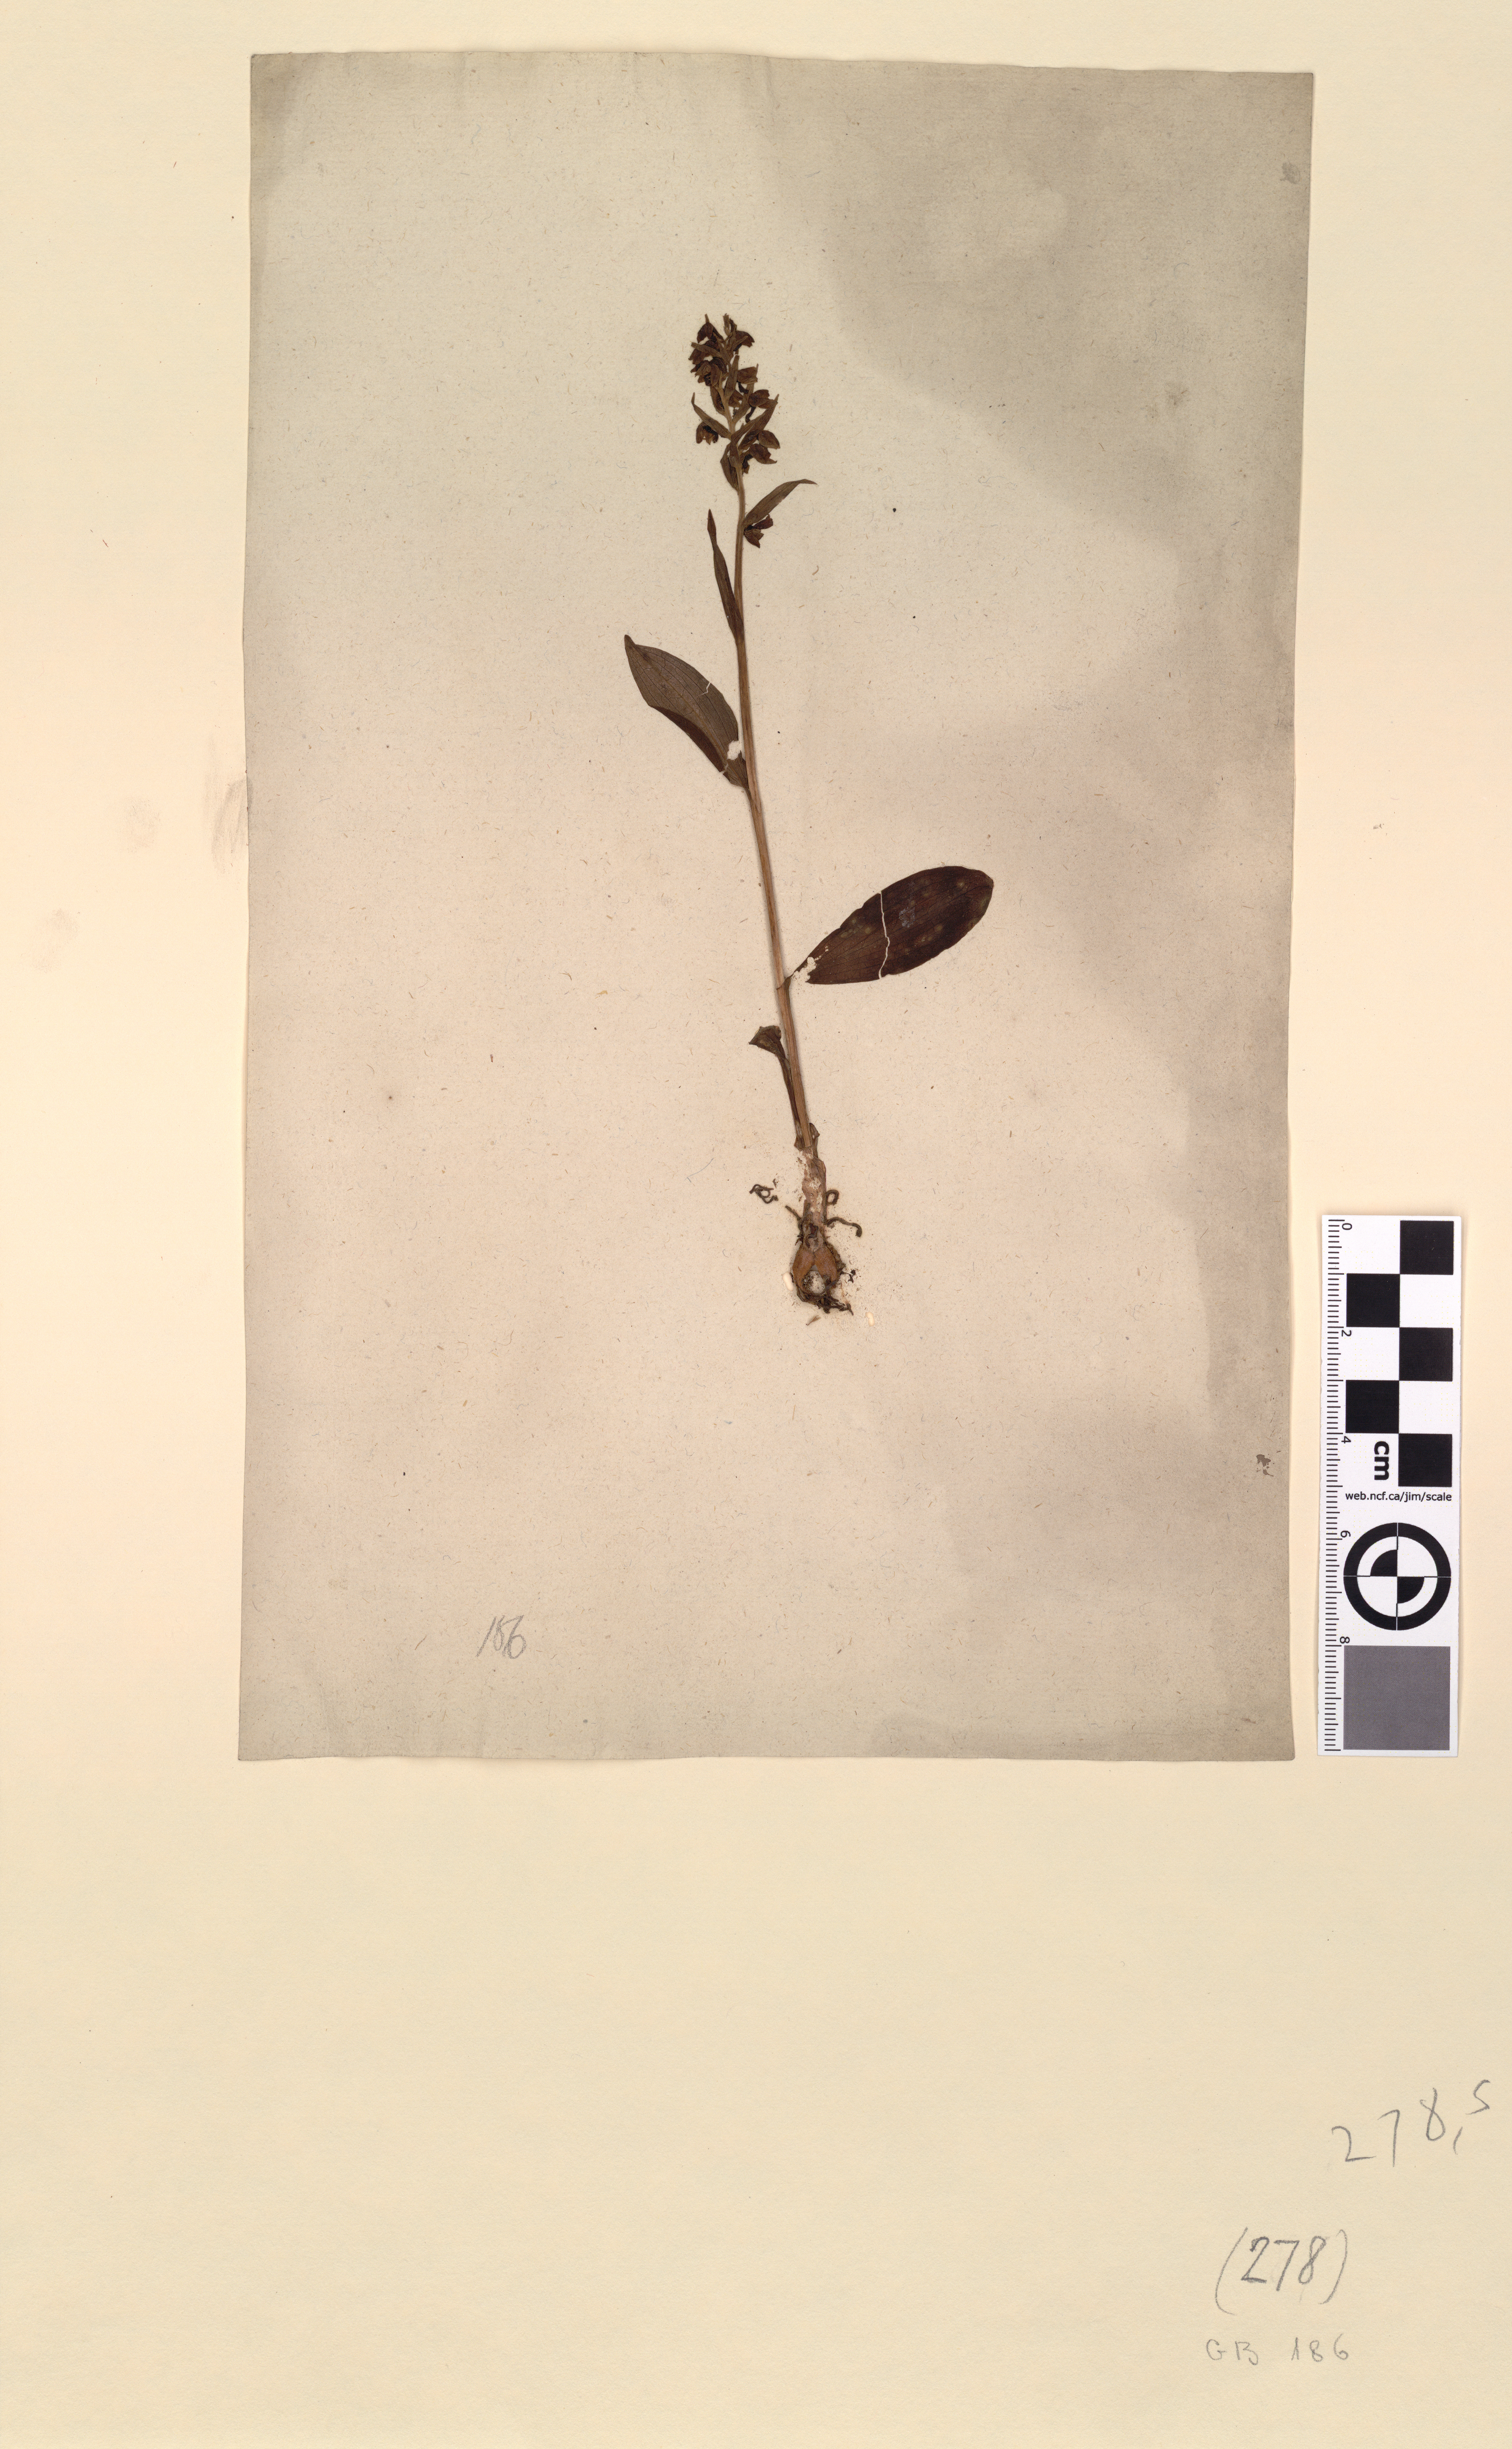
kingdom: Plantae
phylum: Tracheophyta
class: Liliopsida
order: Asparagales
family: Orchidaceae
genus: Dactylorhiza
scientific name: Dactylorhiza viridis
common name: Longbract frog orchid
